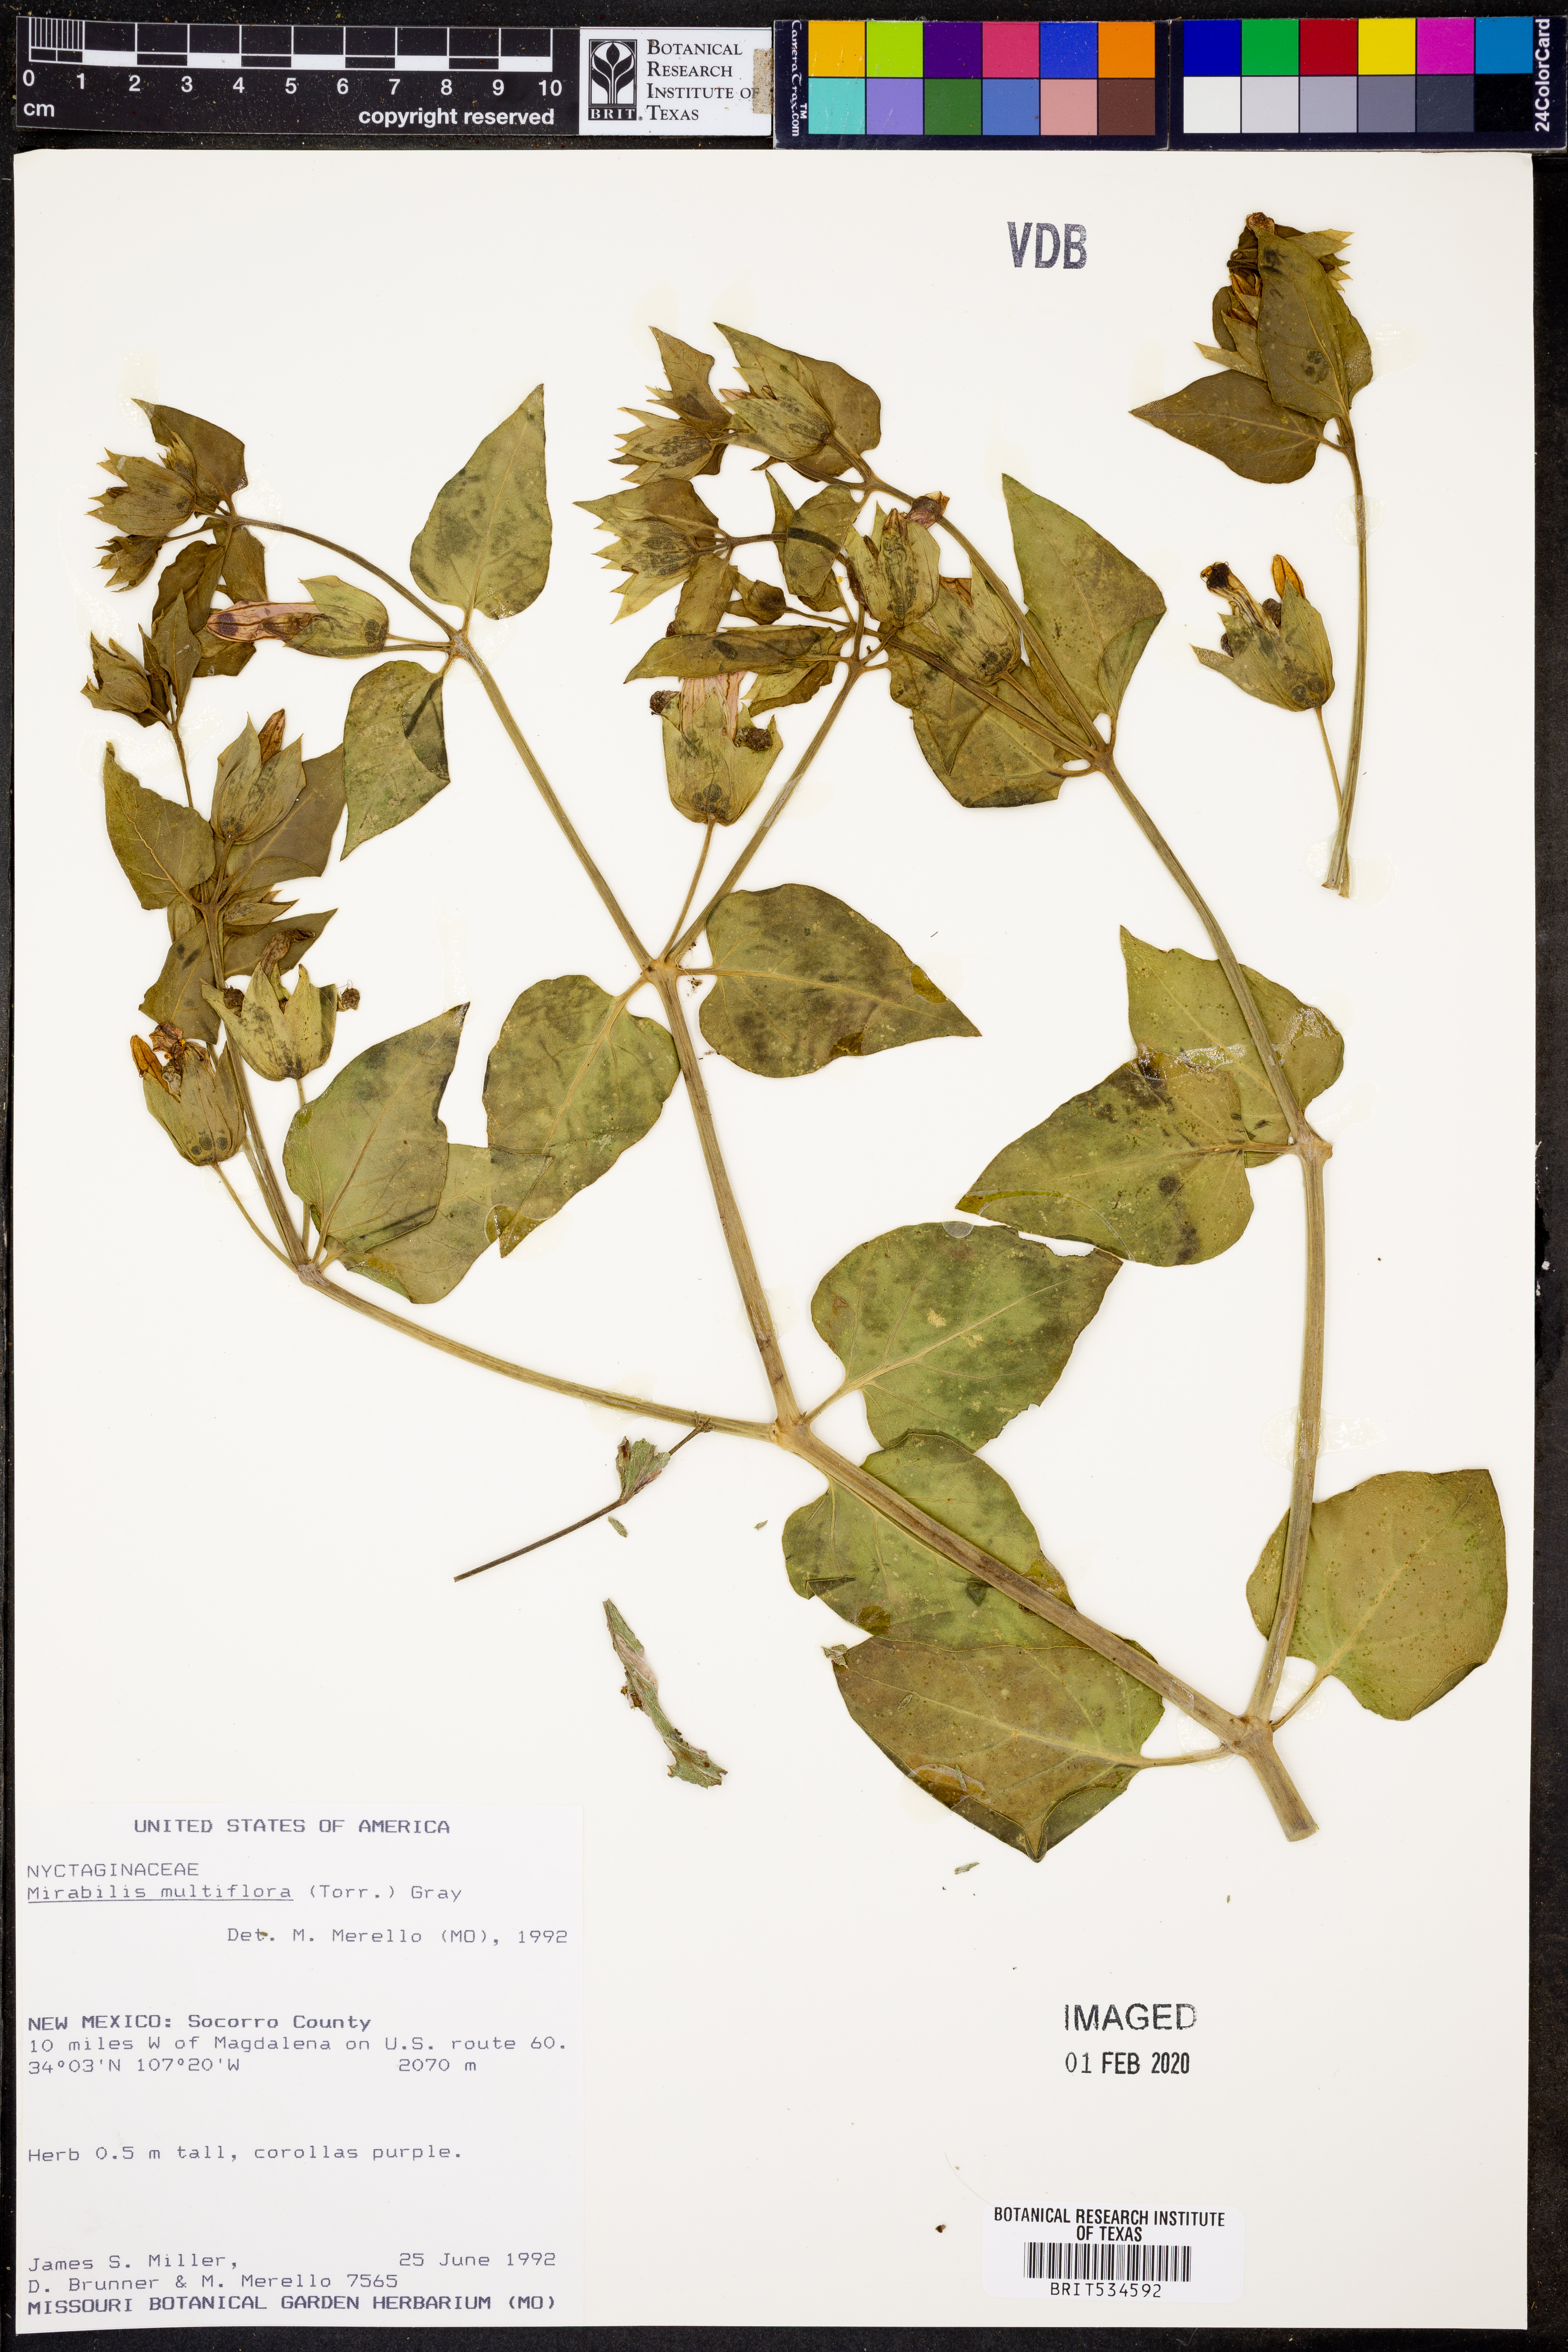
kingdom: Plantae
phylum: Tracheophyta
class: Magnoliopsida
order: Caryophyllales
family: Nyctaginaceae
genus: Mirabilis
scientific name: Mirabilis multiflora
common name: Froebel's four-o'clock
